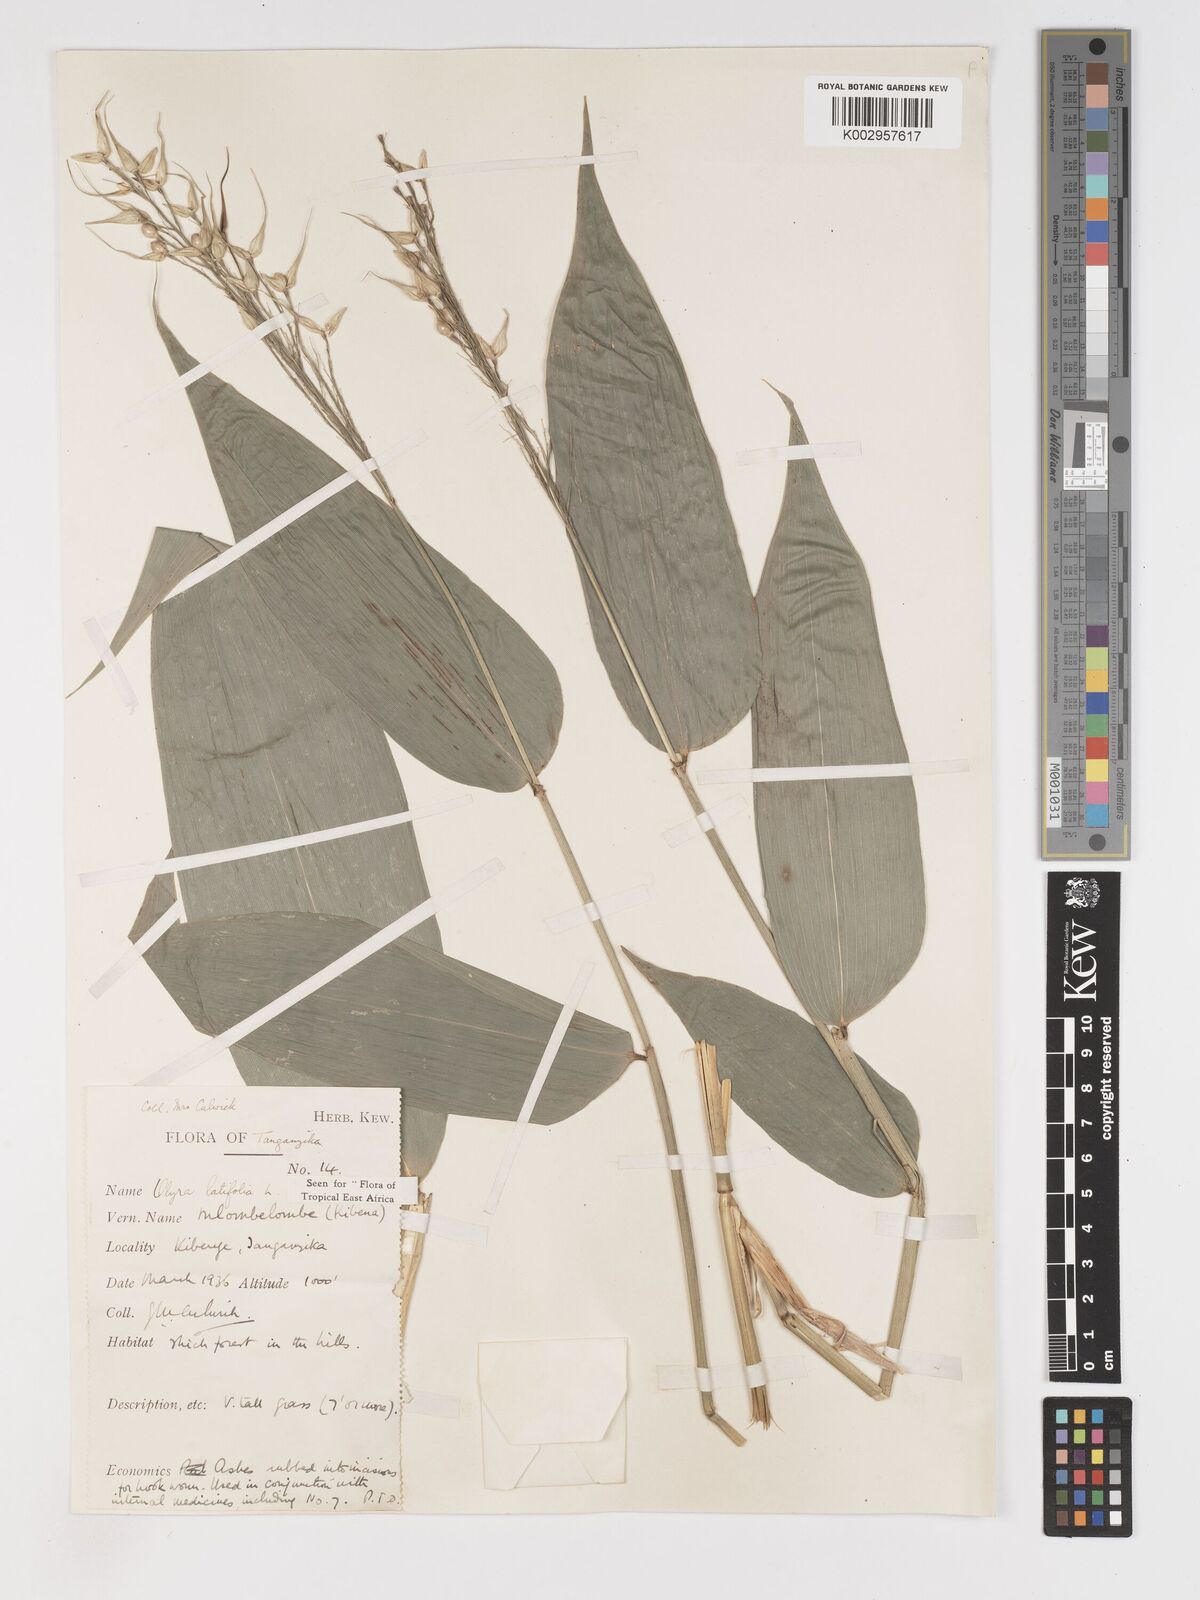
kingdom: Plantae
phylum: Tracheophyta
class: Liliopsida
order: Poales
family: Poaceae
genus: Olyra
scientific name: Olyra latifolia
